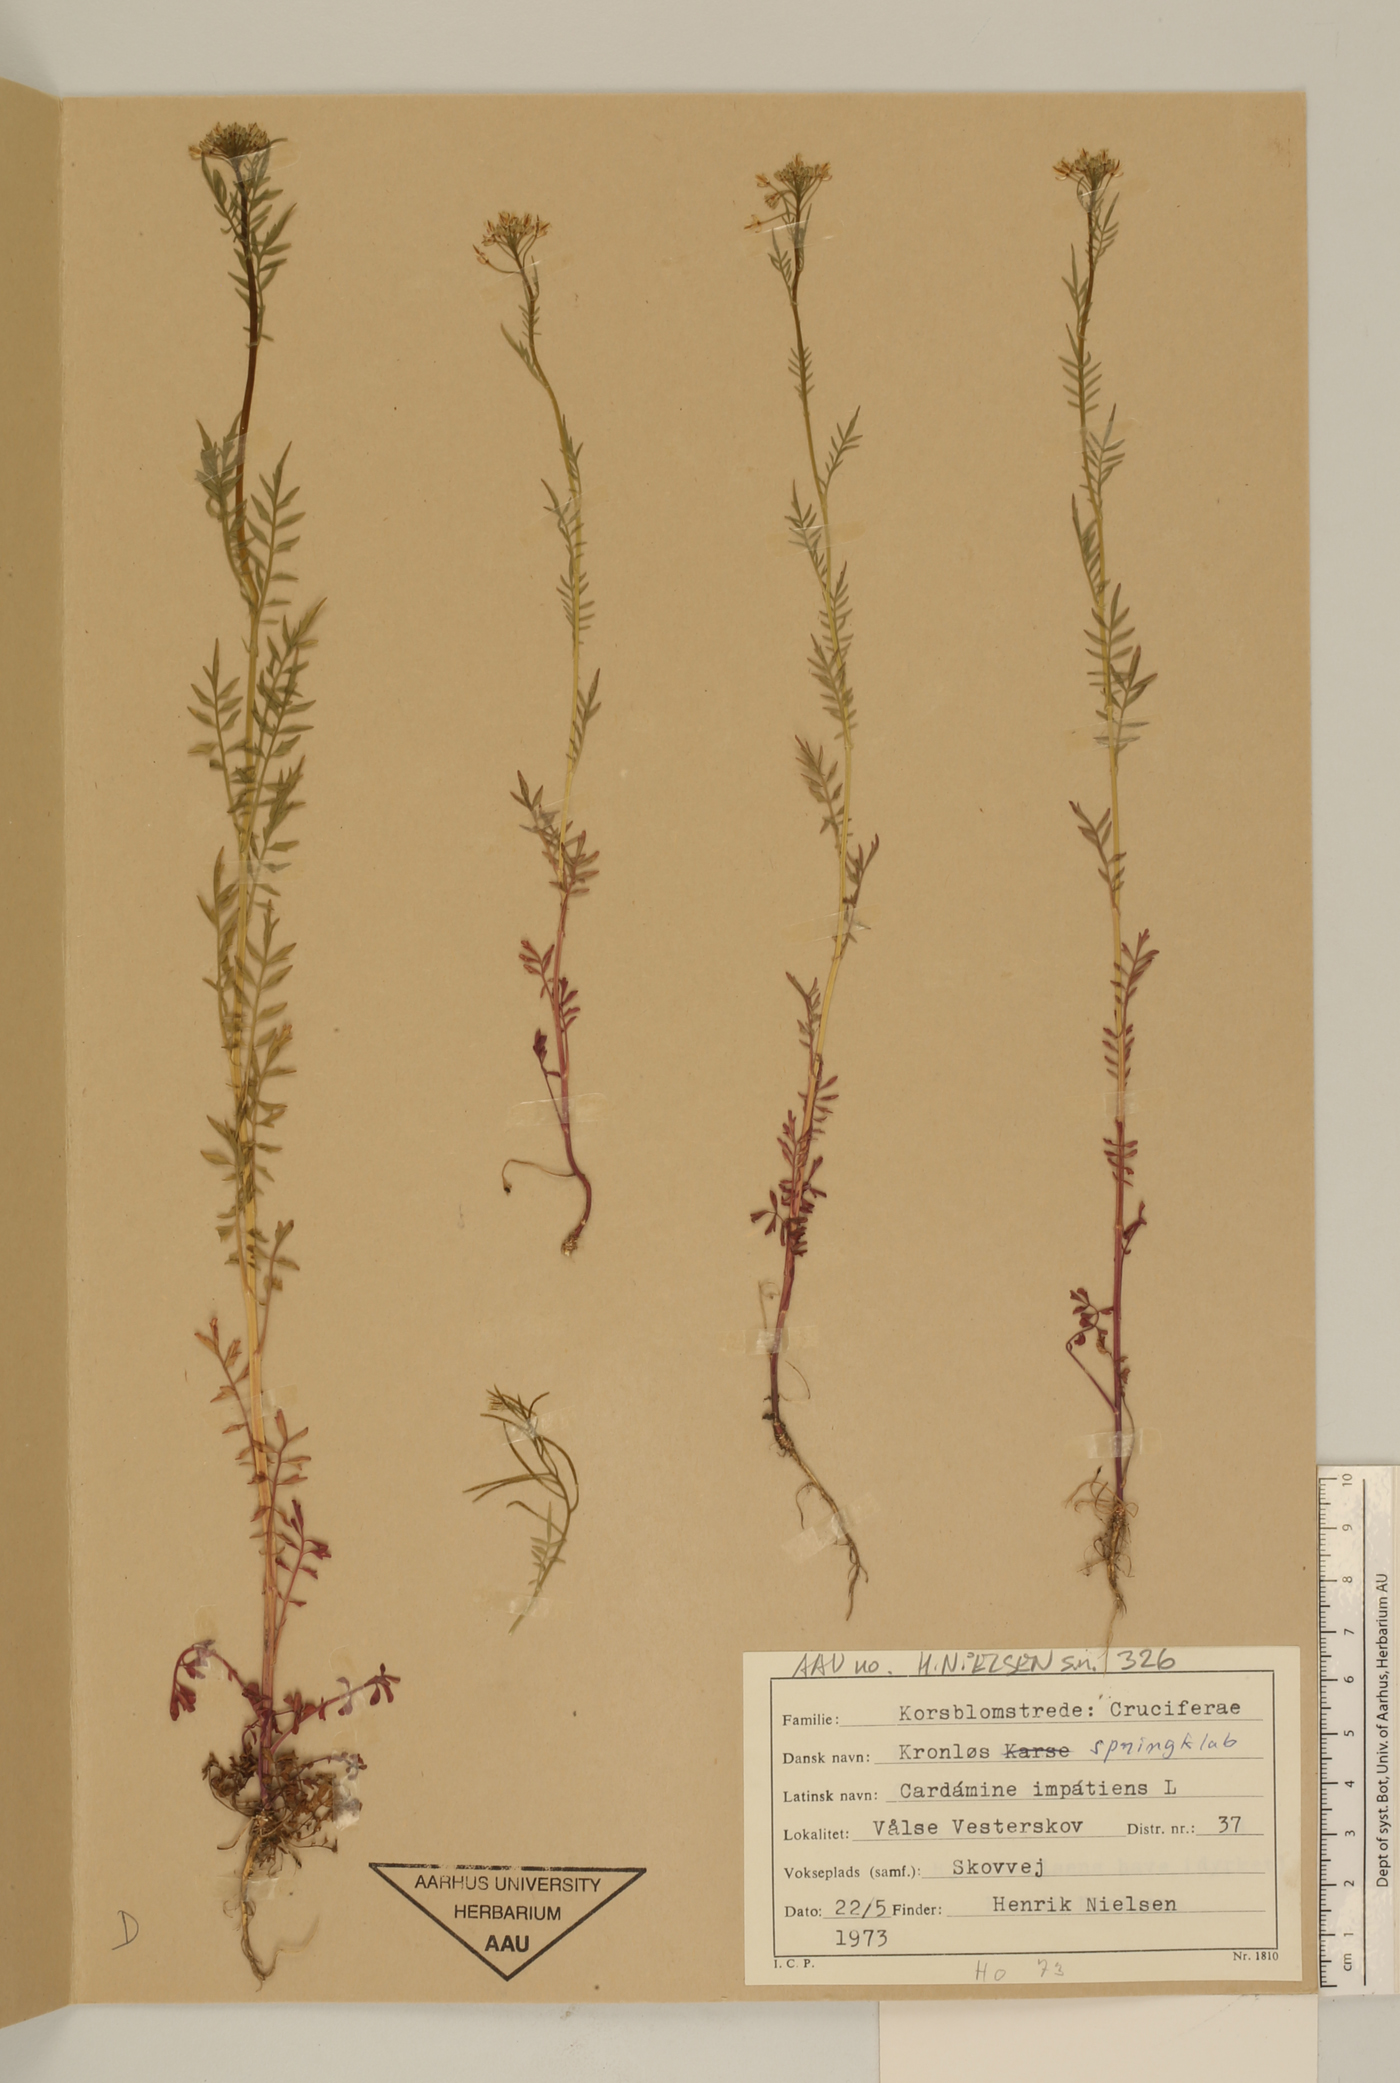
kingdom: Plantae
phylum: Tracheophyta
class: Magnoliopsida
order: Brassicales
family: Brassicaceae
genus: Cardamine
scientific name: Cardamine impatiens
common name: Narrow-leaved bitter-cress
